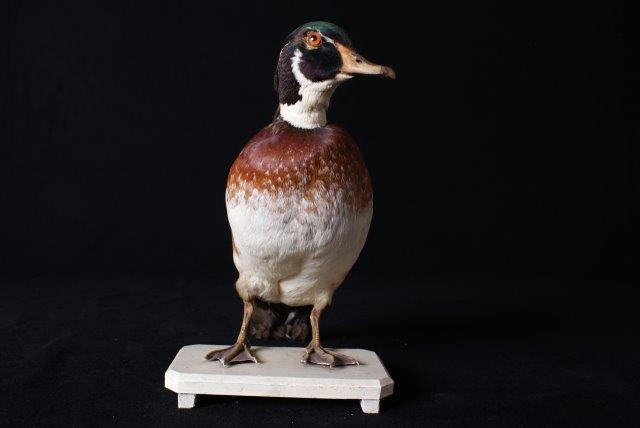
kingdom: Animalia
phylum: Chordata
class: Aves
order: Anseriformes
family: Anatidae
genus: Aix
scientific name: Aix sponsa
